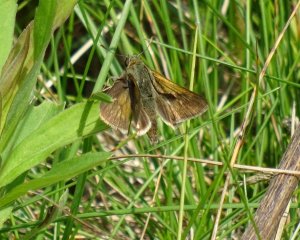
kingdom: Animalia
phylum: Arthropoda
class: Insecta
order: Lepidoptera
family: Hesperiidae
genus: Polites
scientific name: Polites themistocles
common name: Tawny-edged Skipper
